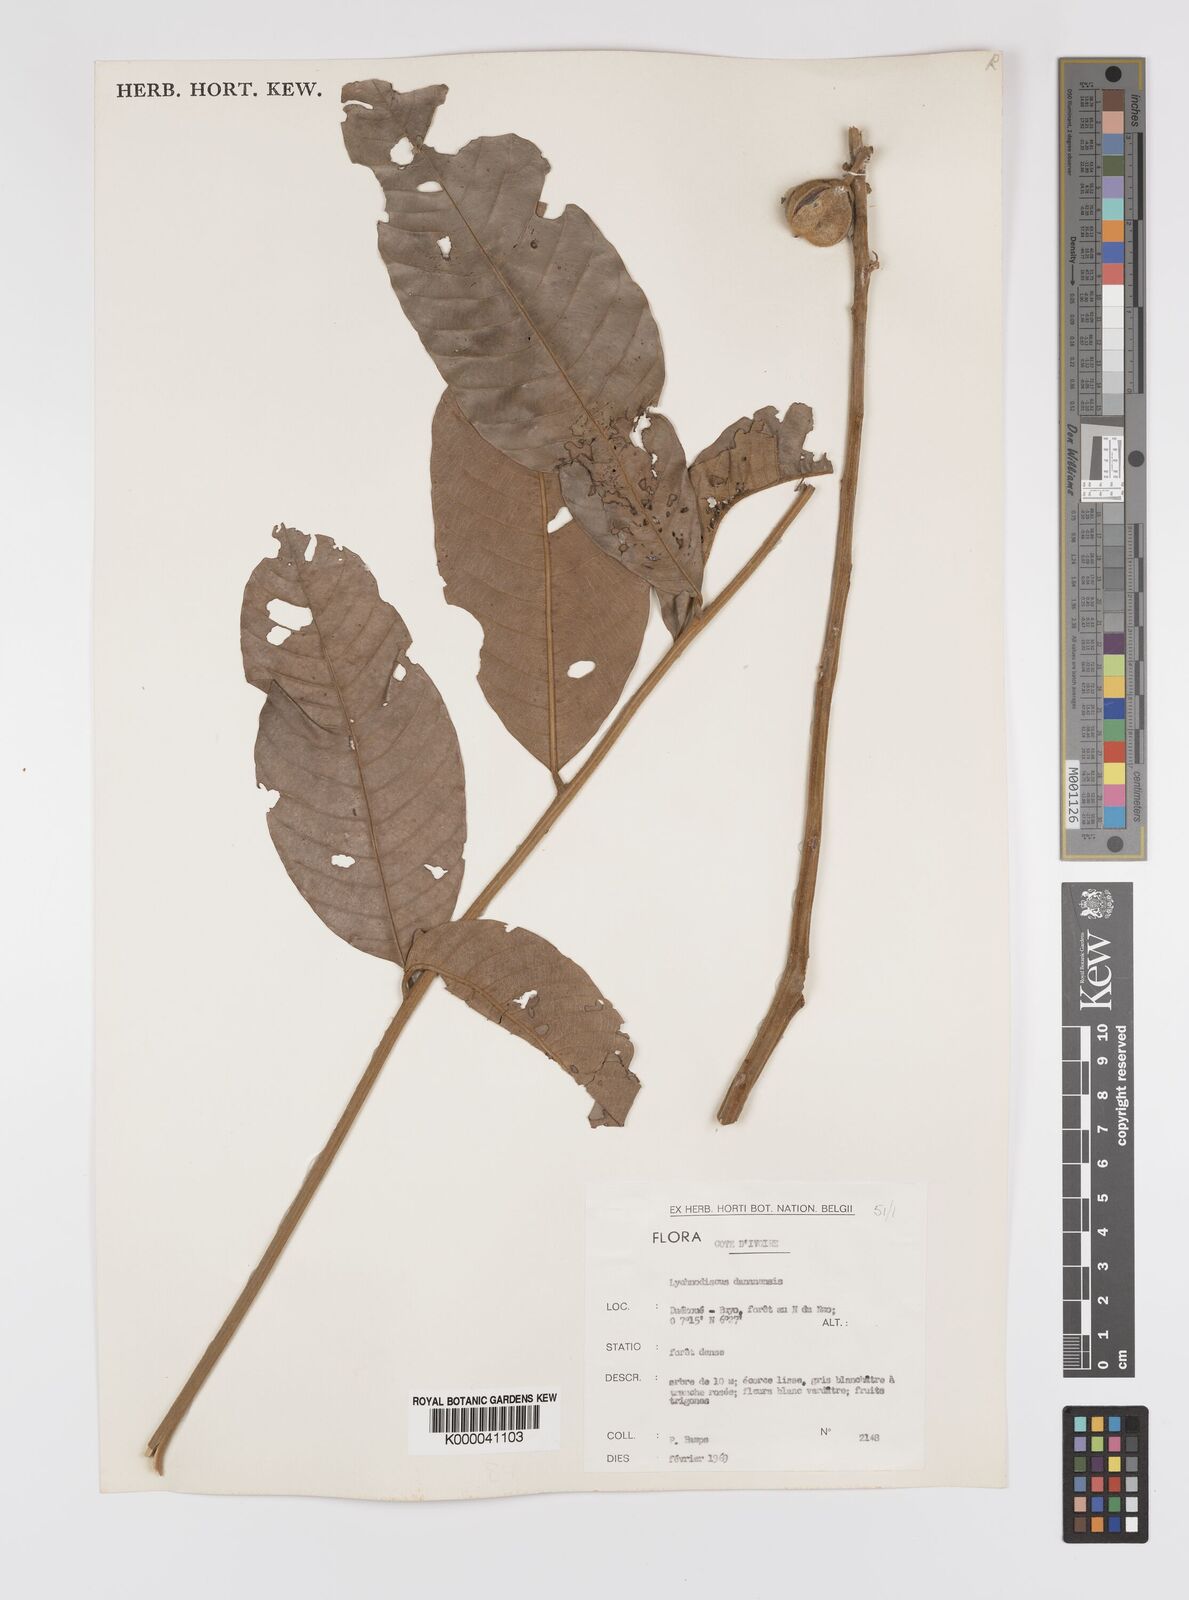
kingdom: Plantae
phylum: Tracheophyta
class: Magnoliopsida
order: Sapindales
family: Sapindaceae
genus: Lychnodiscus
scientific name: Lychnodiscus dananensis
